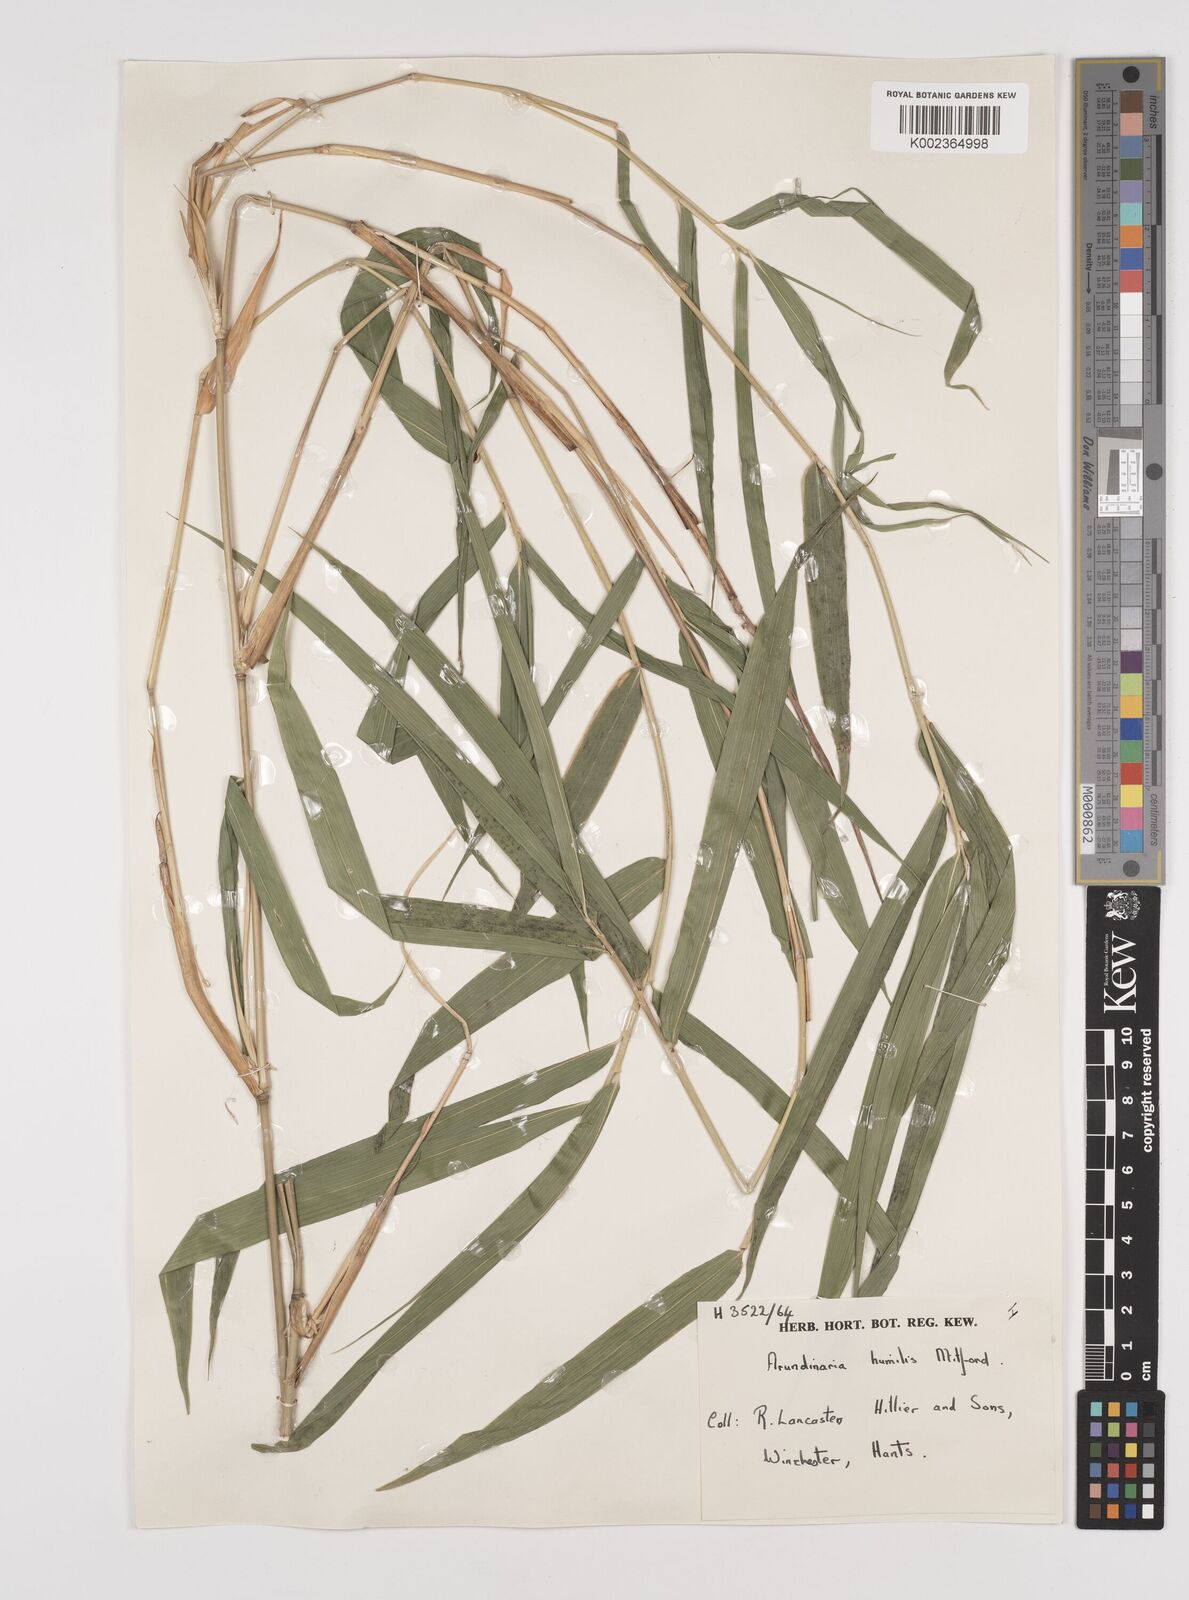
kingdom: Plantae
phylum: Tracheophyta
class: Liliopsida
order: Poales
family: Poaceae
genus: Pseudosasa
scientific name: Pseudosasa humilis
